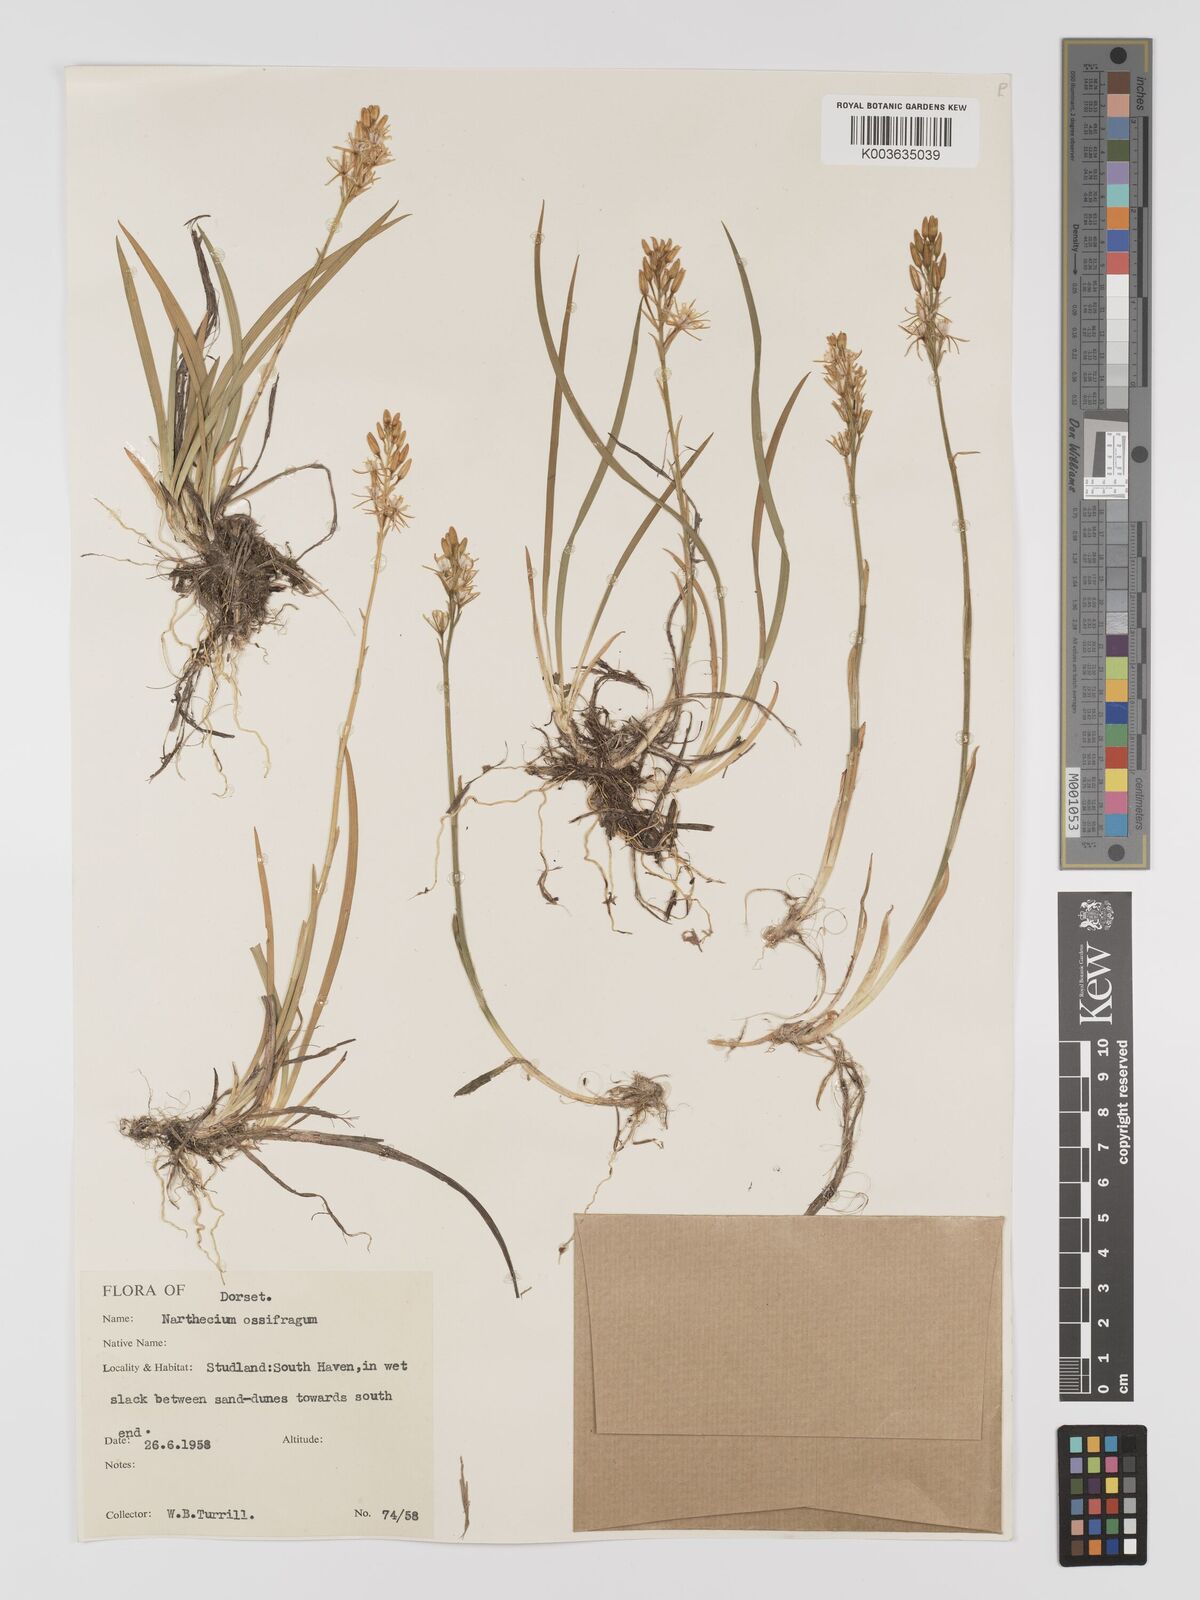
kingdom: Plantae
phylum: Tracheophyta
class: Liliopsida
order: Dioscoreales
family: Nartheciaceae
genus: Narthecium
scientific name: Narthecium
